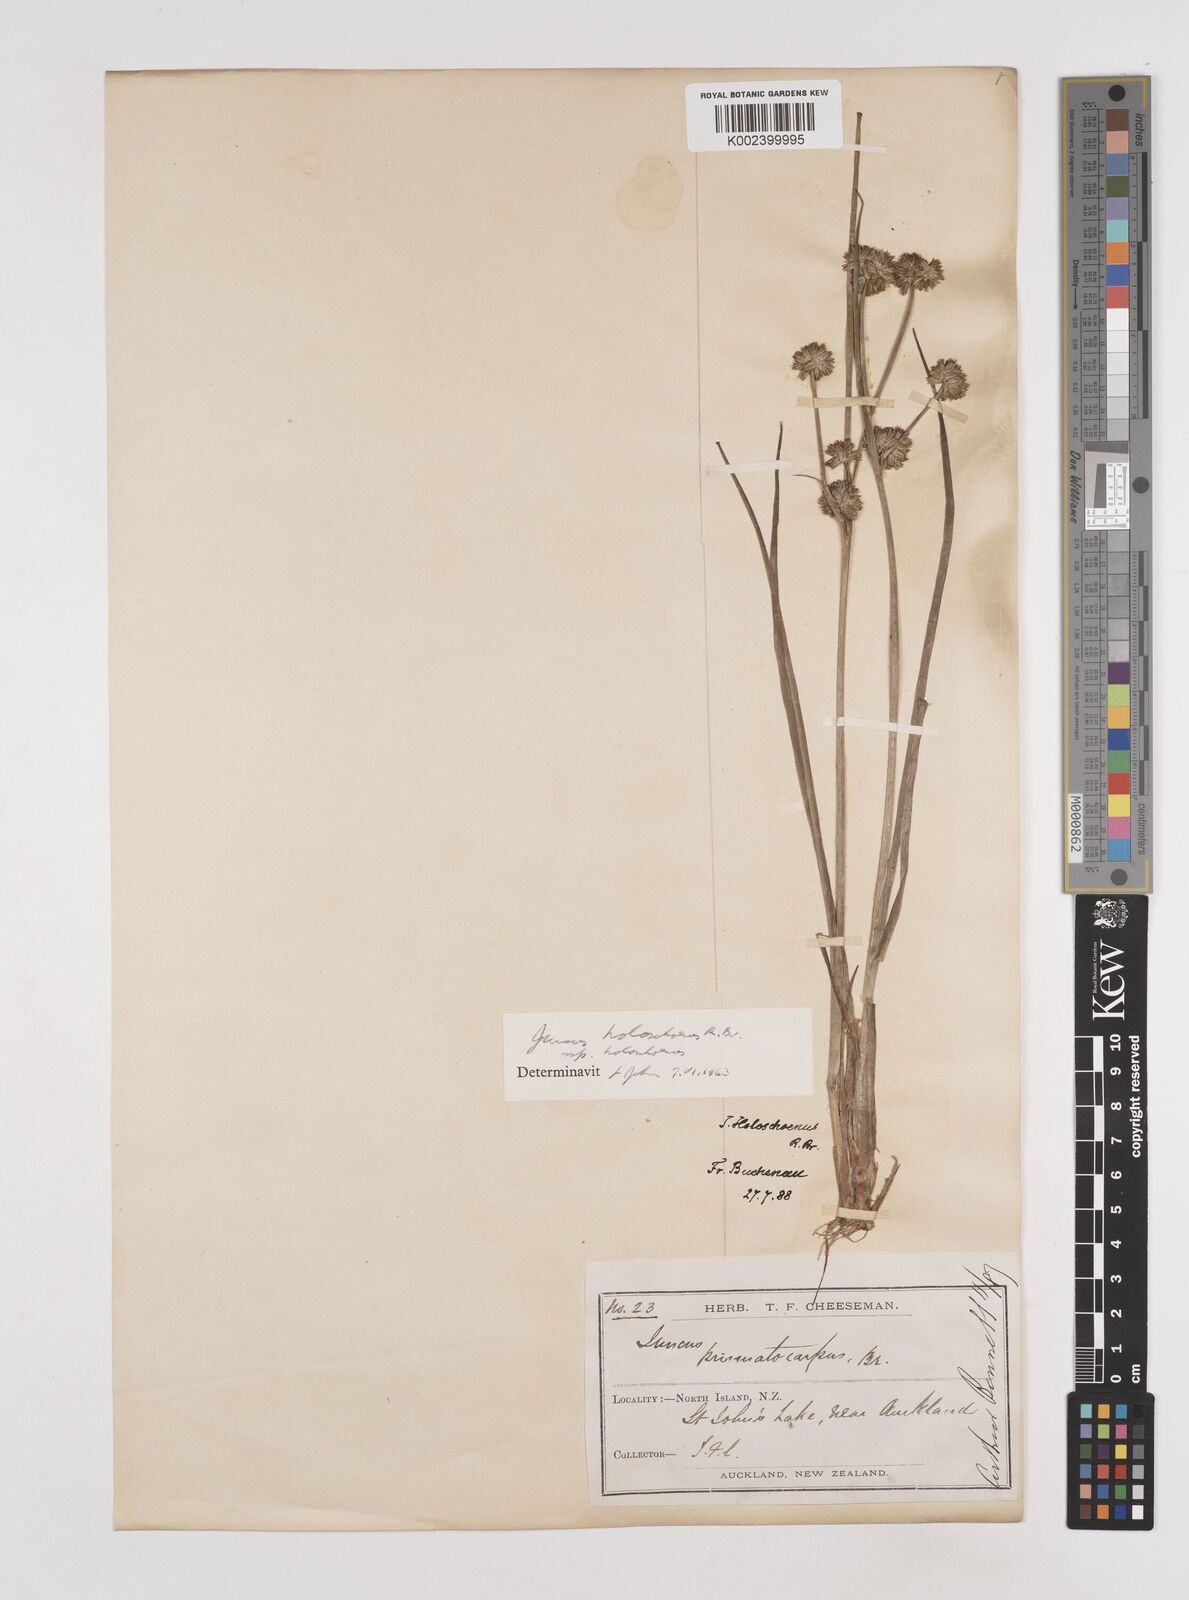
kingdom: Plantae
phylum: Tracheophyta
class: Liliopsida
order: Poales
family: Juncaceae
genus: Juncus
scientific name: Juncus holoschoenus
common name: Joint-leaf rush
